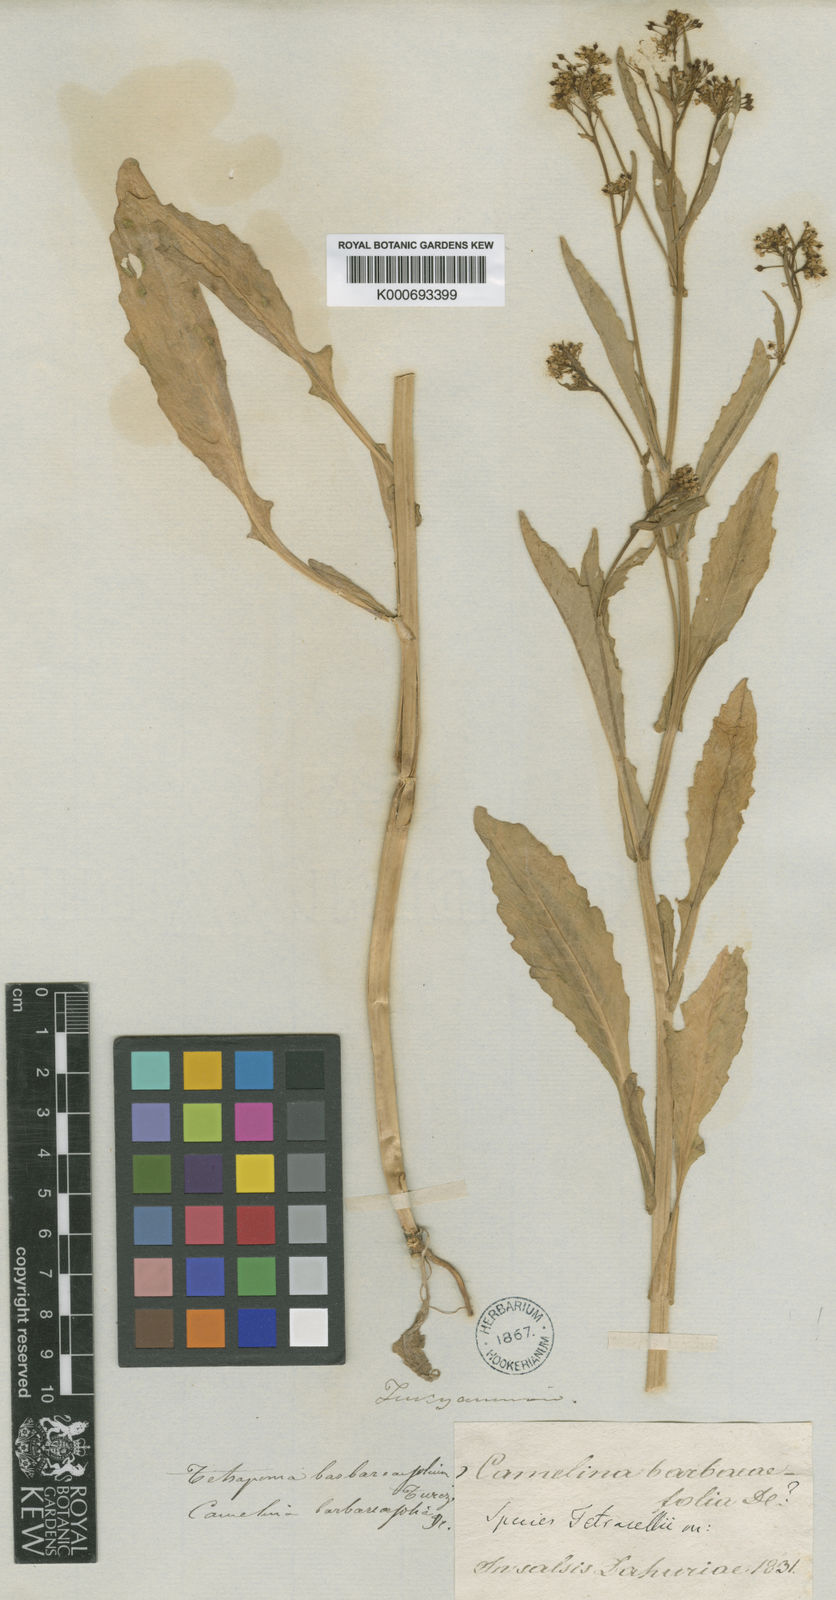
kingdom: Plantae
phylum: Tracheophyta
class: Magnoliopsida
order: Brassicales
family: Brassicaceae
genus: Rorippa
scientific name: Rorippa
